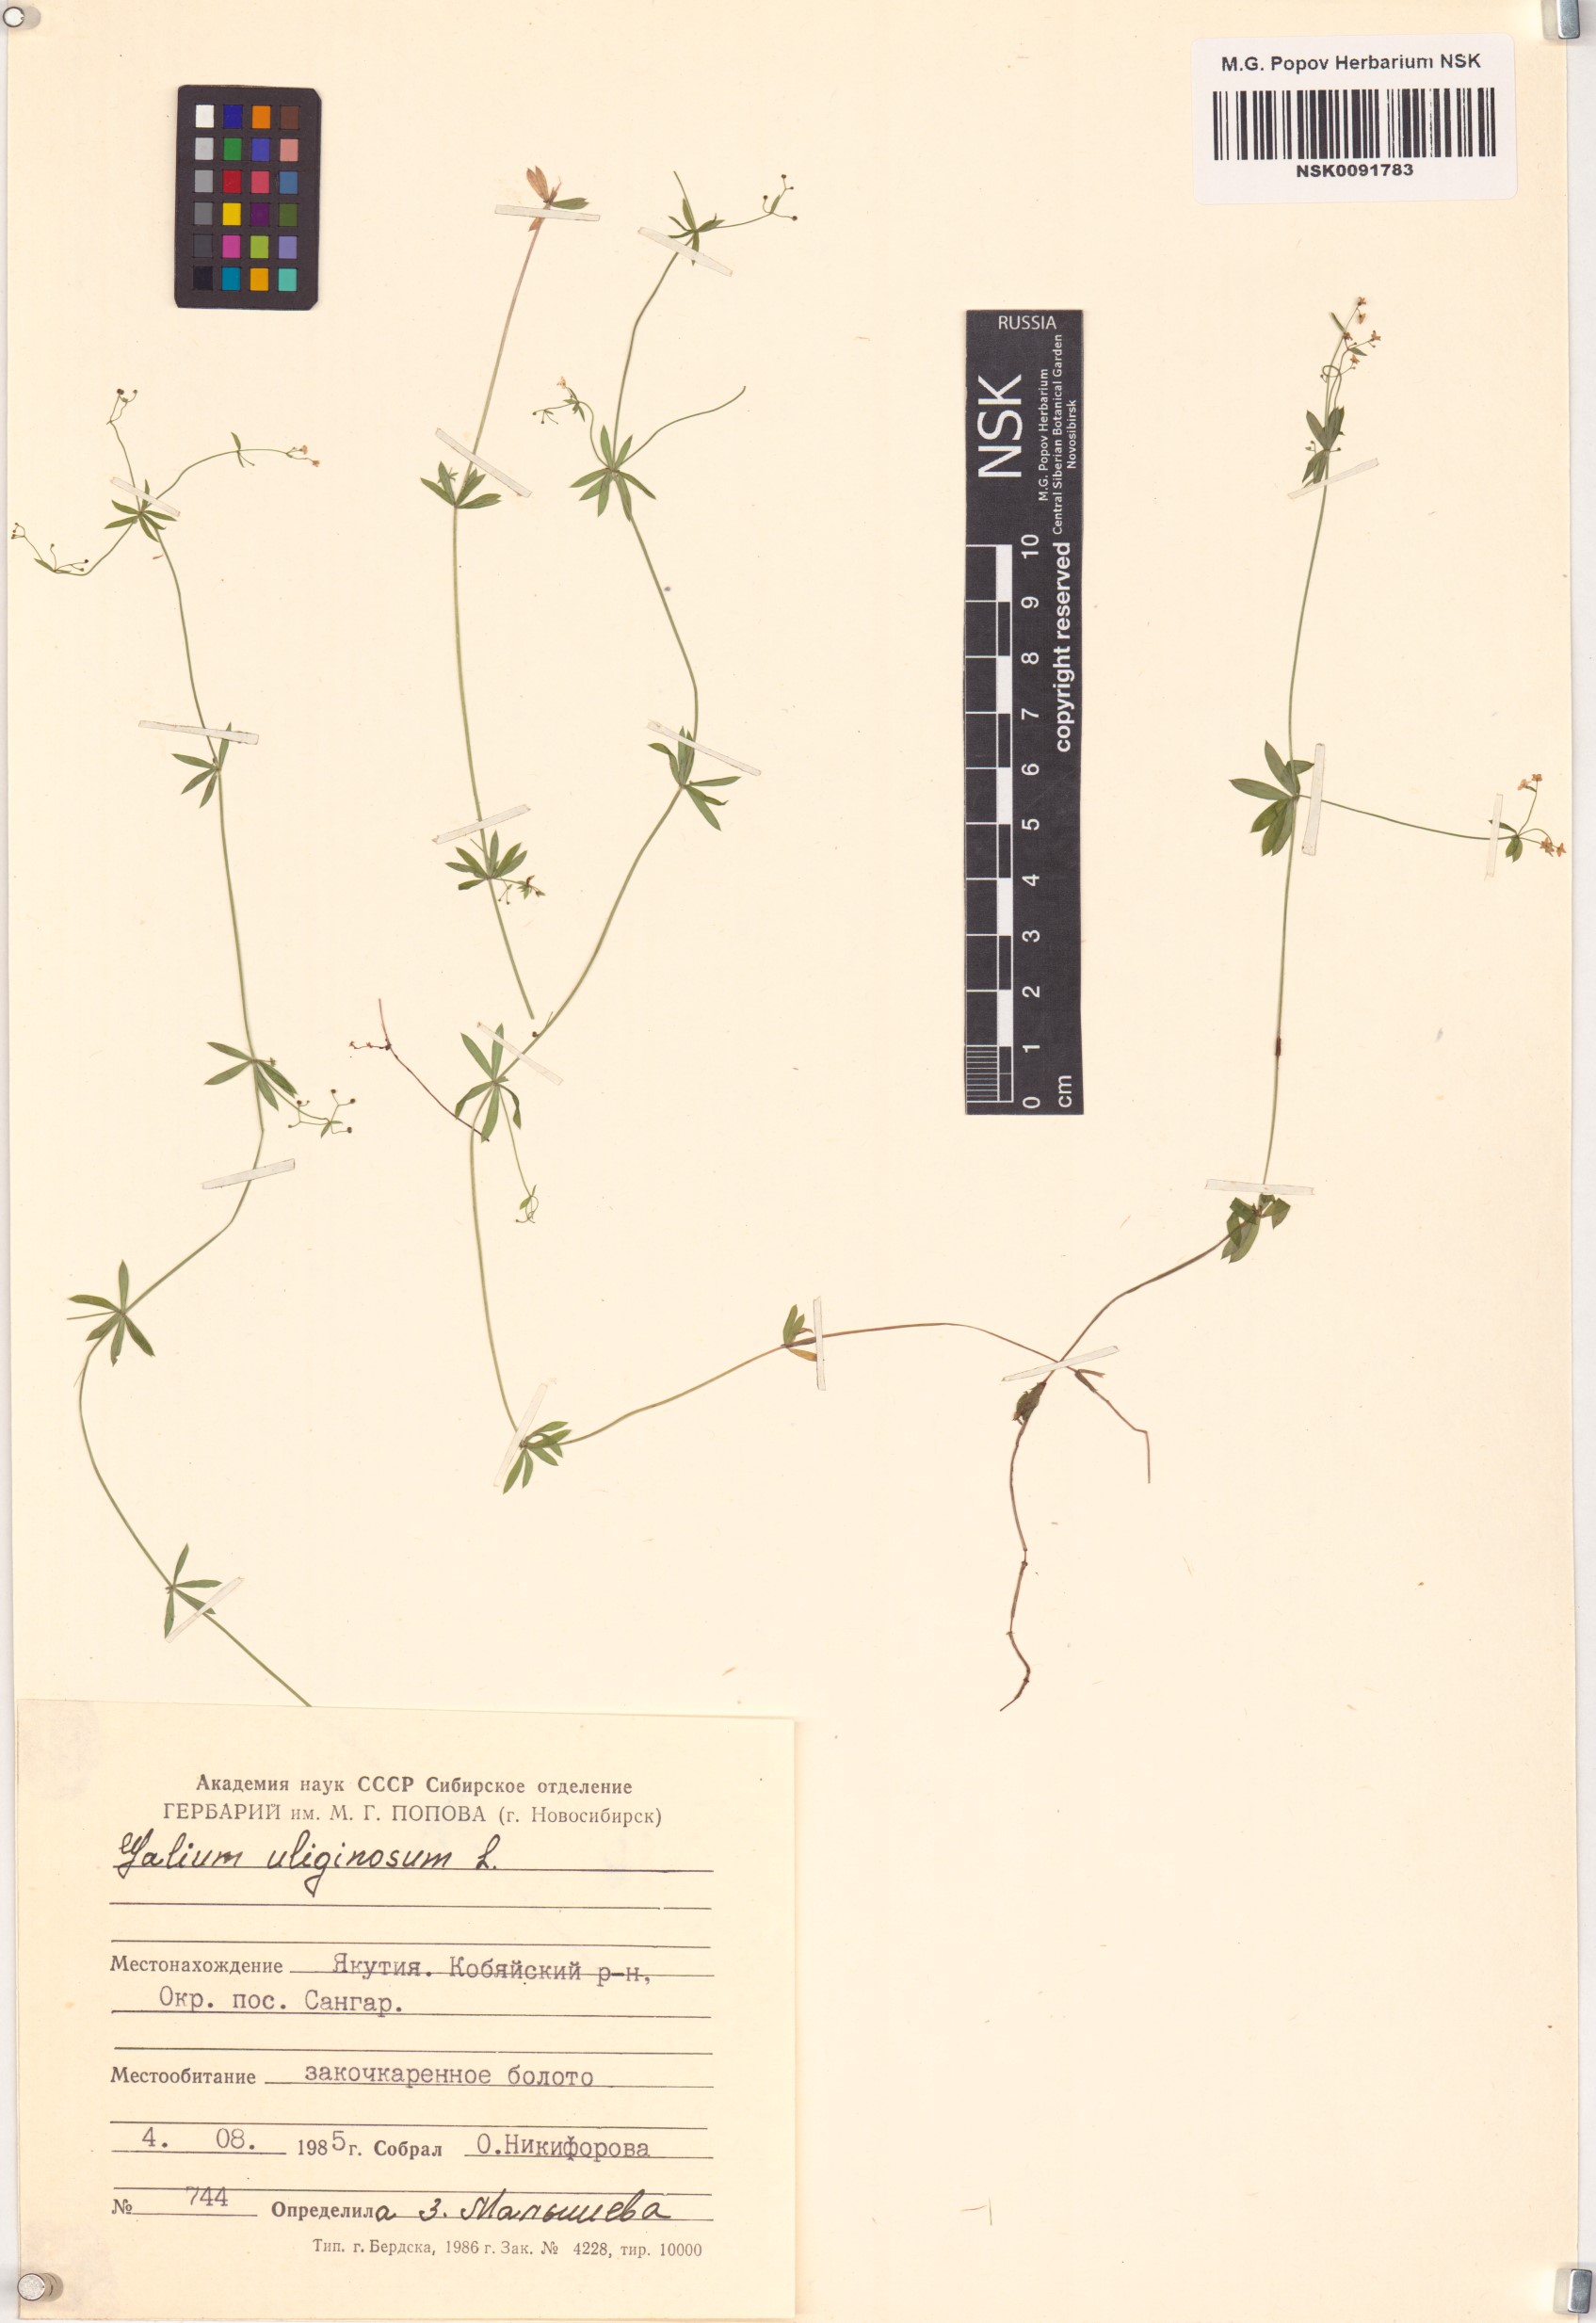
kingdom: Plantae
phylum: Tracheophyta
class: Magnoliopsida
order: Gentianales
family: Rubiaceae
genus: Galium
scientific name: Galium uliginosum
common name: Fen bedstraw
